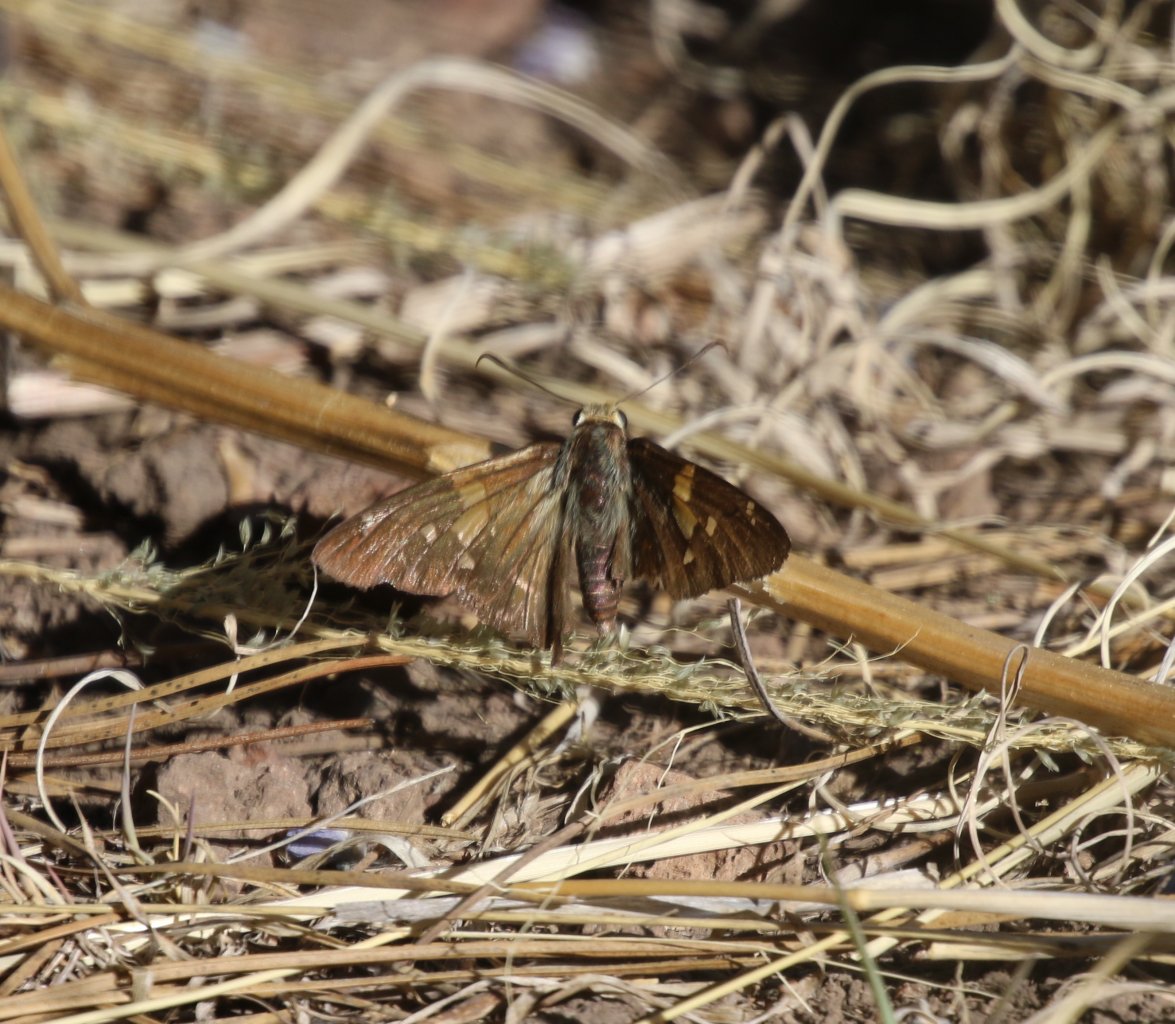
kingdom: Animalia
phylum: Arthropoda
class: Insecta
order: Lepidoptera
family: Hesperiidae
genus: Epargyreus
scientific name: Epargyreus clarus
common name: Silver-spotted Skipper
